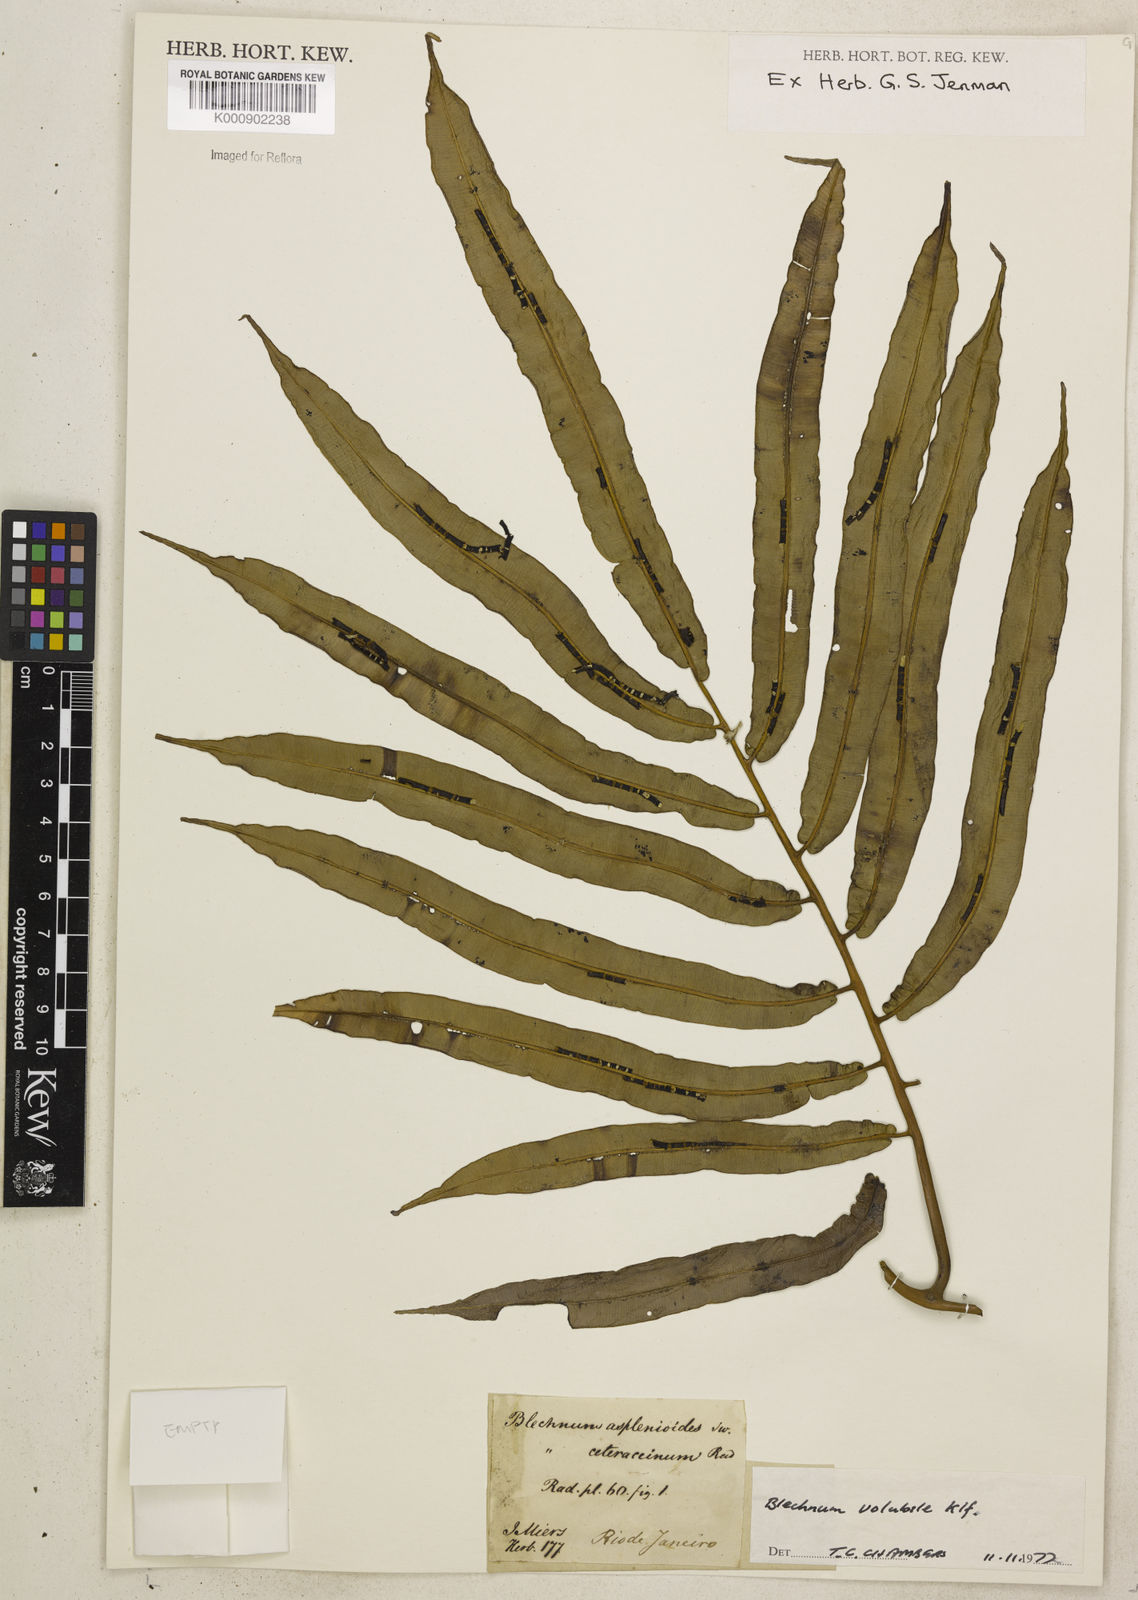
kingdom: Plantae
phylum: Tracheophyta
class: Polypodiopsida
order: Polypodiales
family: Blechnaceae
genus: Salpichlaena
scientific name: Salpichlaena volubilis
